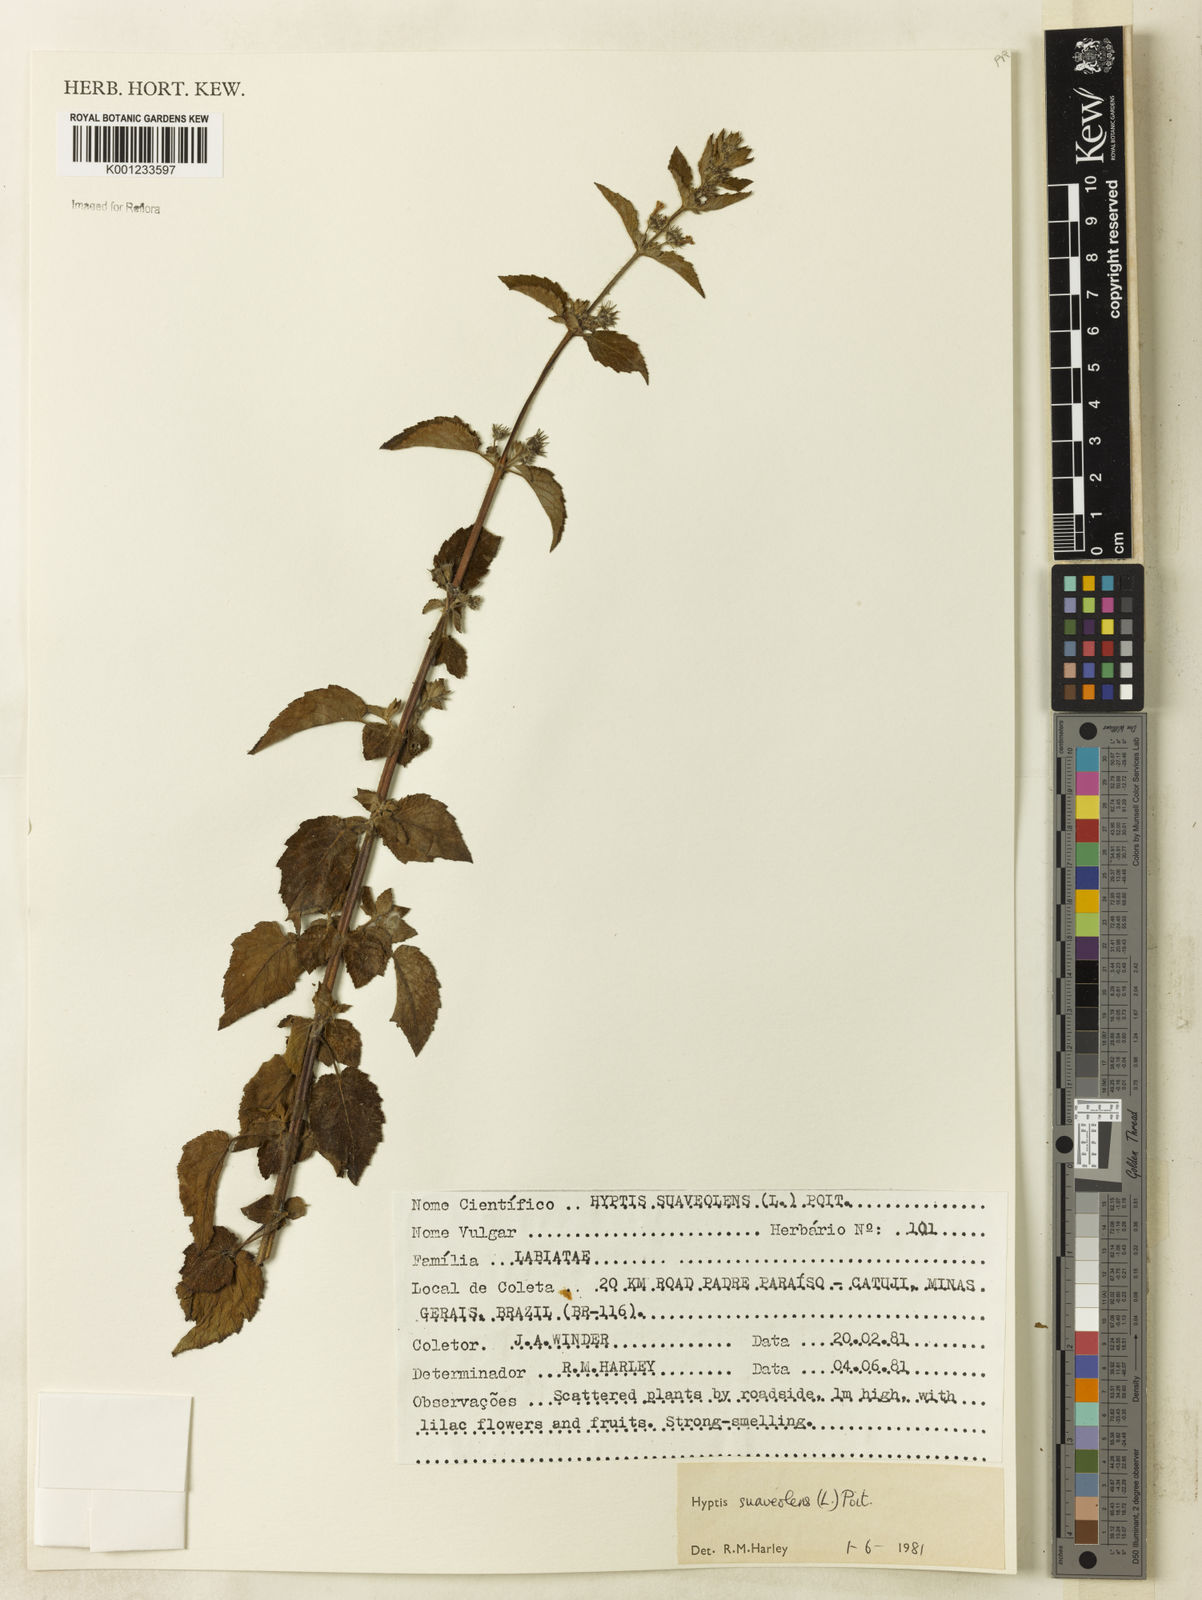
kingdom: Plantae
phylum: Tracheophyta
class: Magnoliopsida
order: Lamiales
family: Lamiaceae
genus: Mesosphaerum
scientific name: Mesosphaerum suaveolens
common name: Pignut
